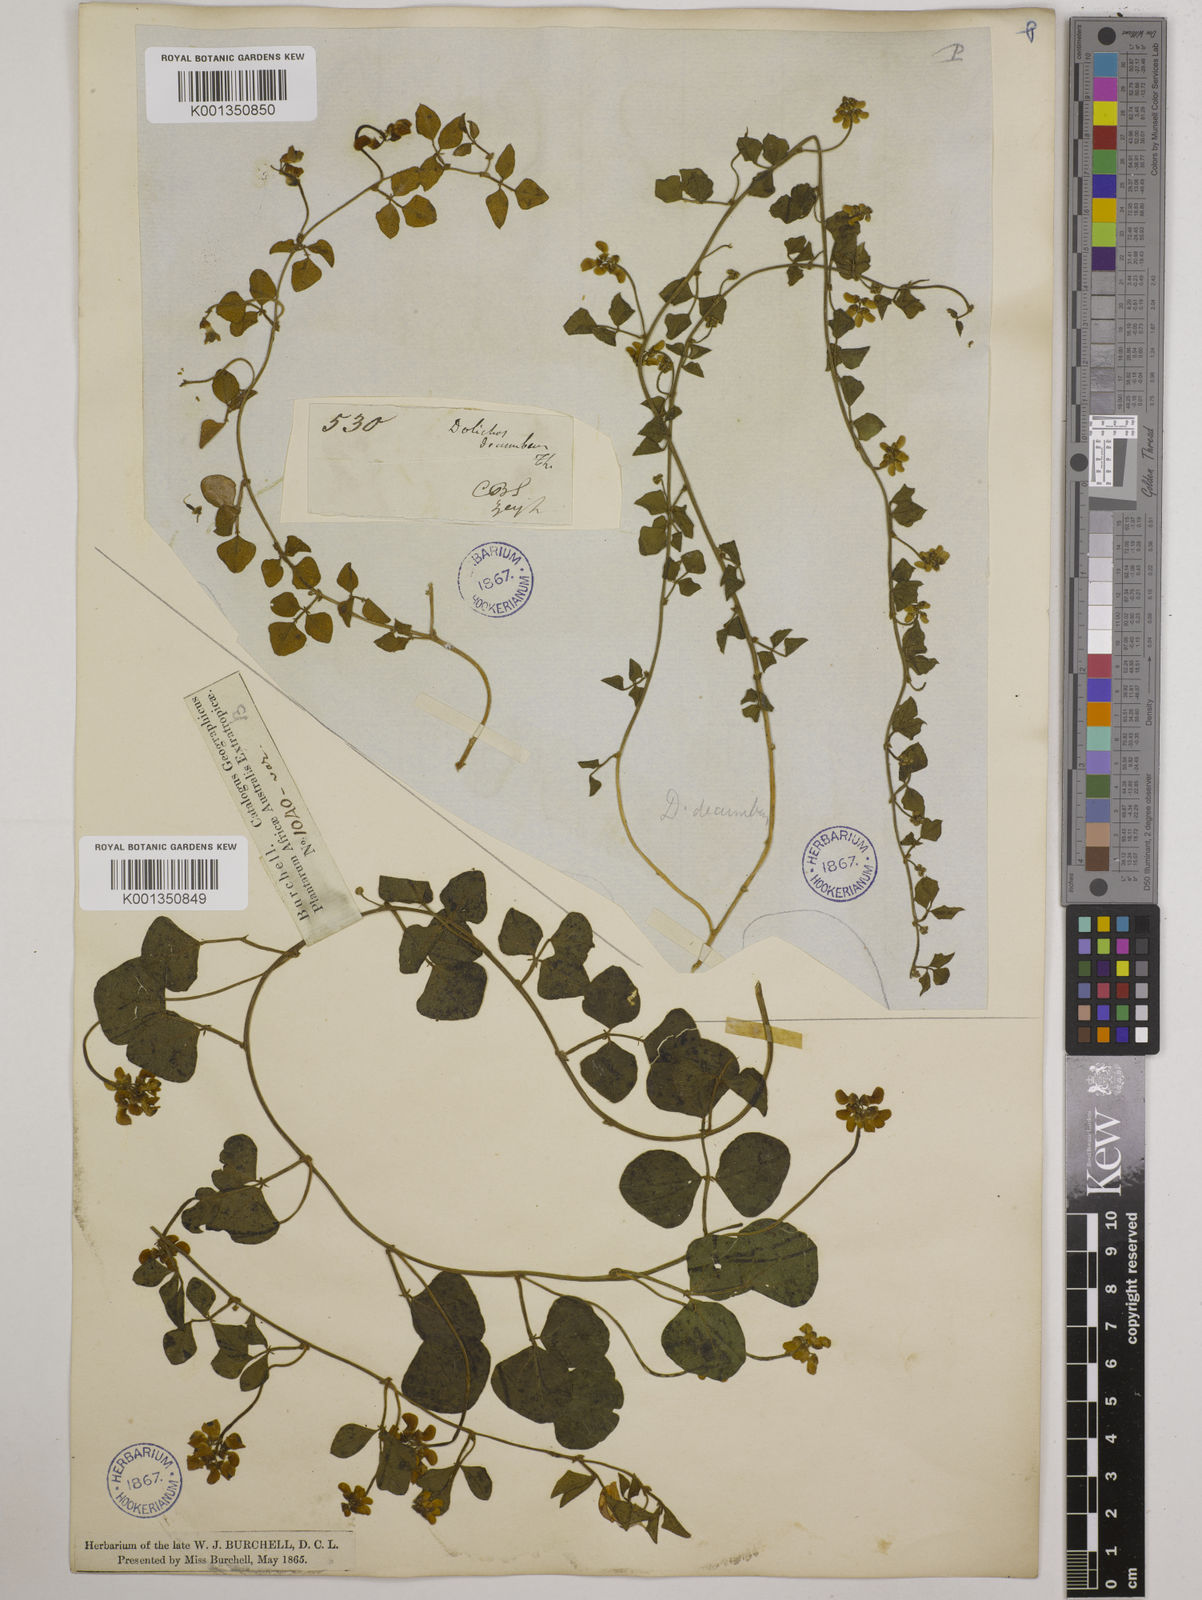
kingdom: Plantae
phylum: Tracheophyta
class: Magnoliopsida
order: Fabales
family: Fabaceae
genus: Dolichos
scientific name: Dolichos decumbens
